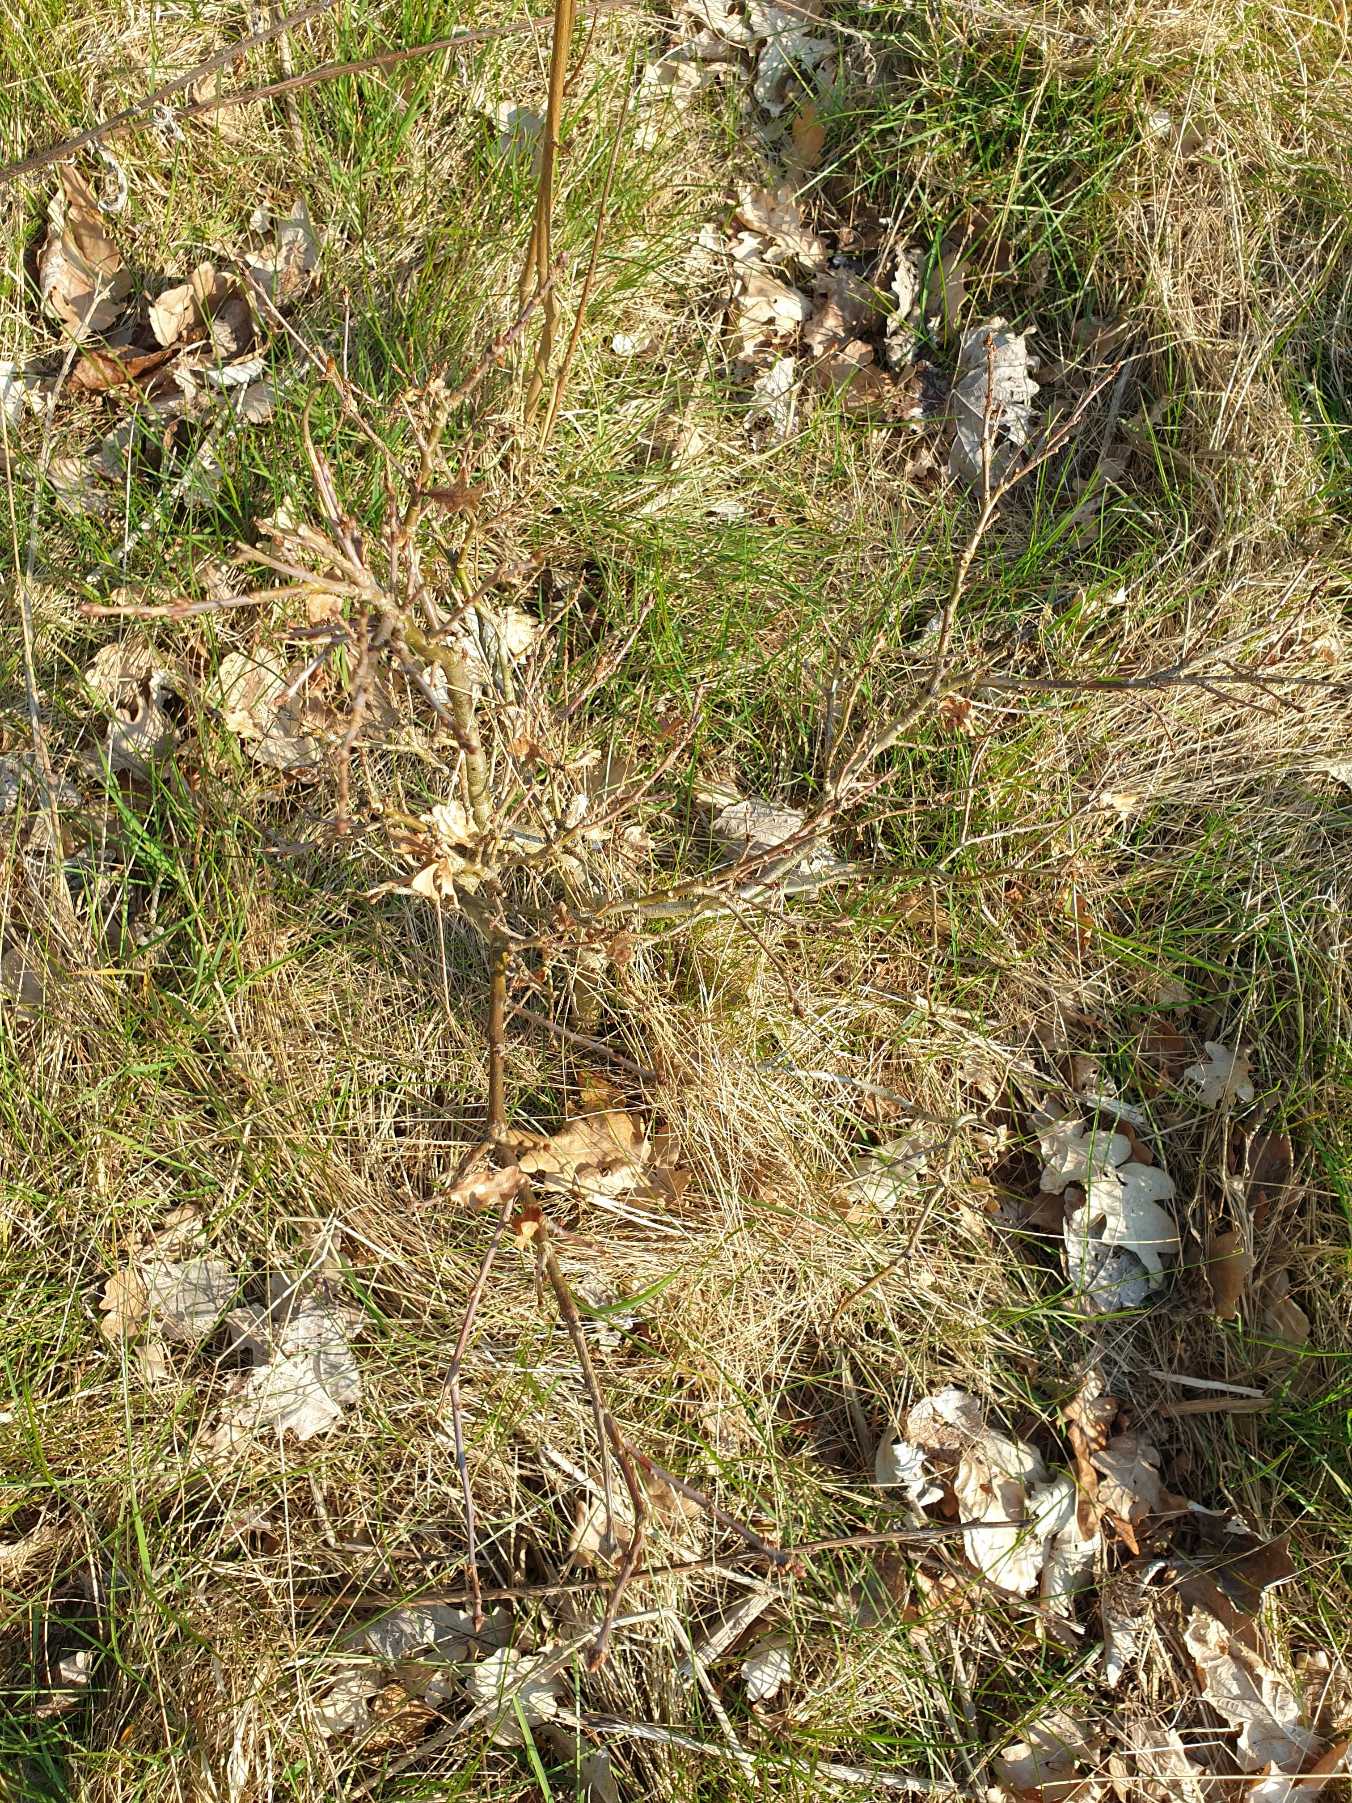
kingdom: Plantae
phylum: Tracheophyta
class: Magnoliopsida
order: Fagales
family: Fagaceae
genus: Quercus
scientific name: Quercus robur
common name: Stilk-eg/almindelig eg
